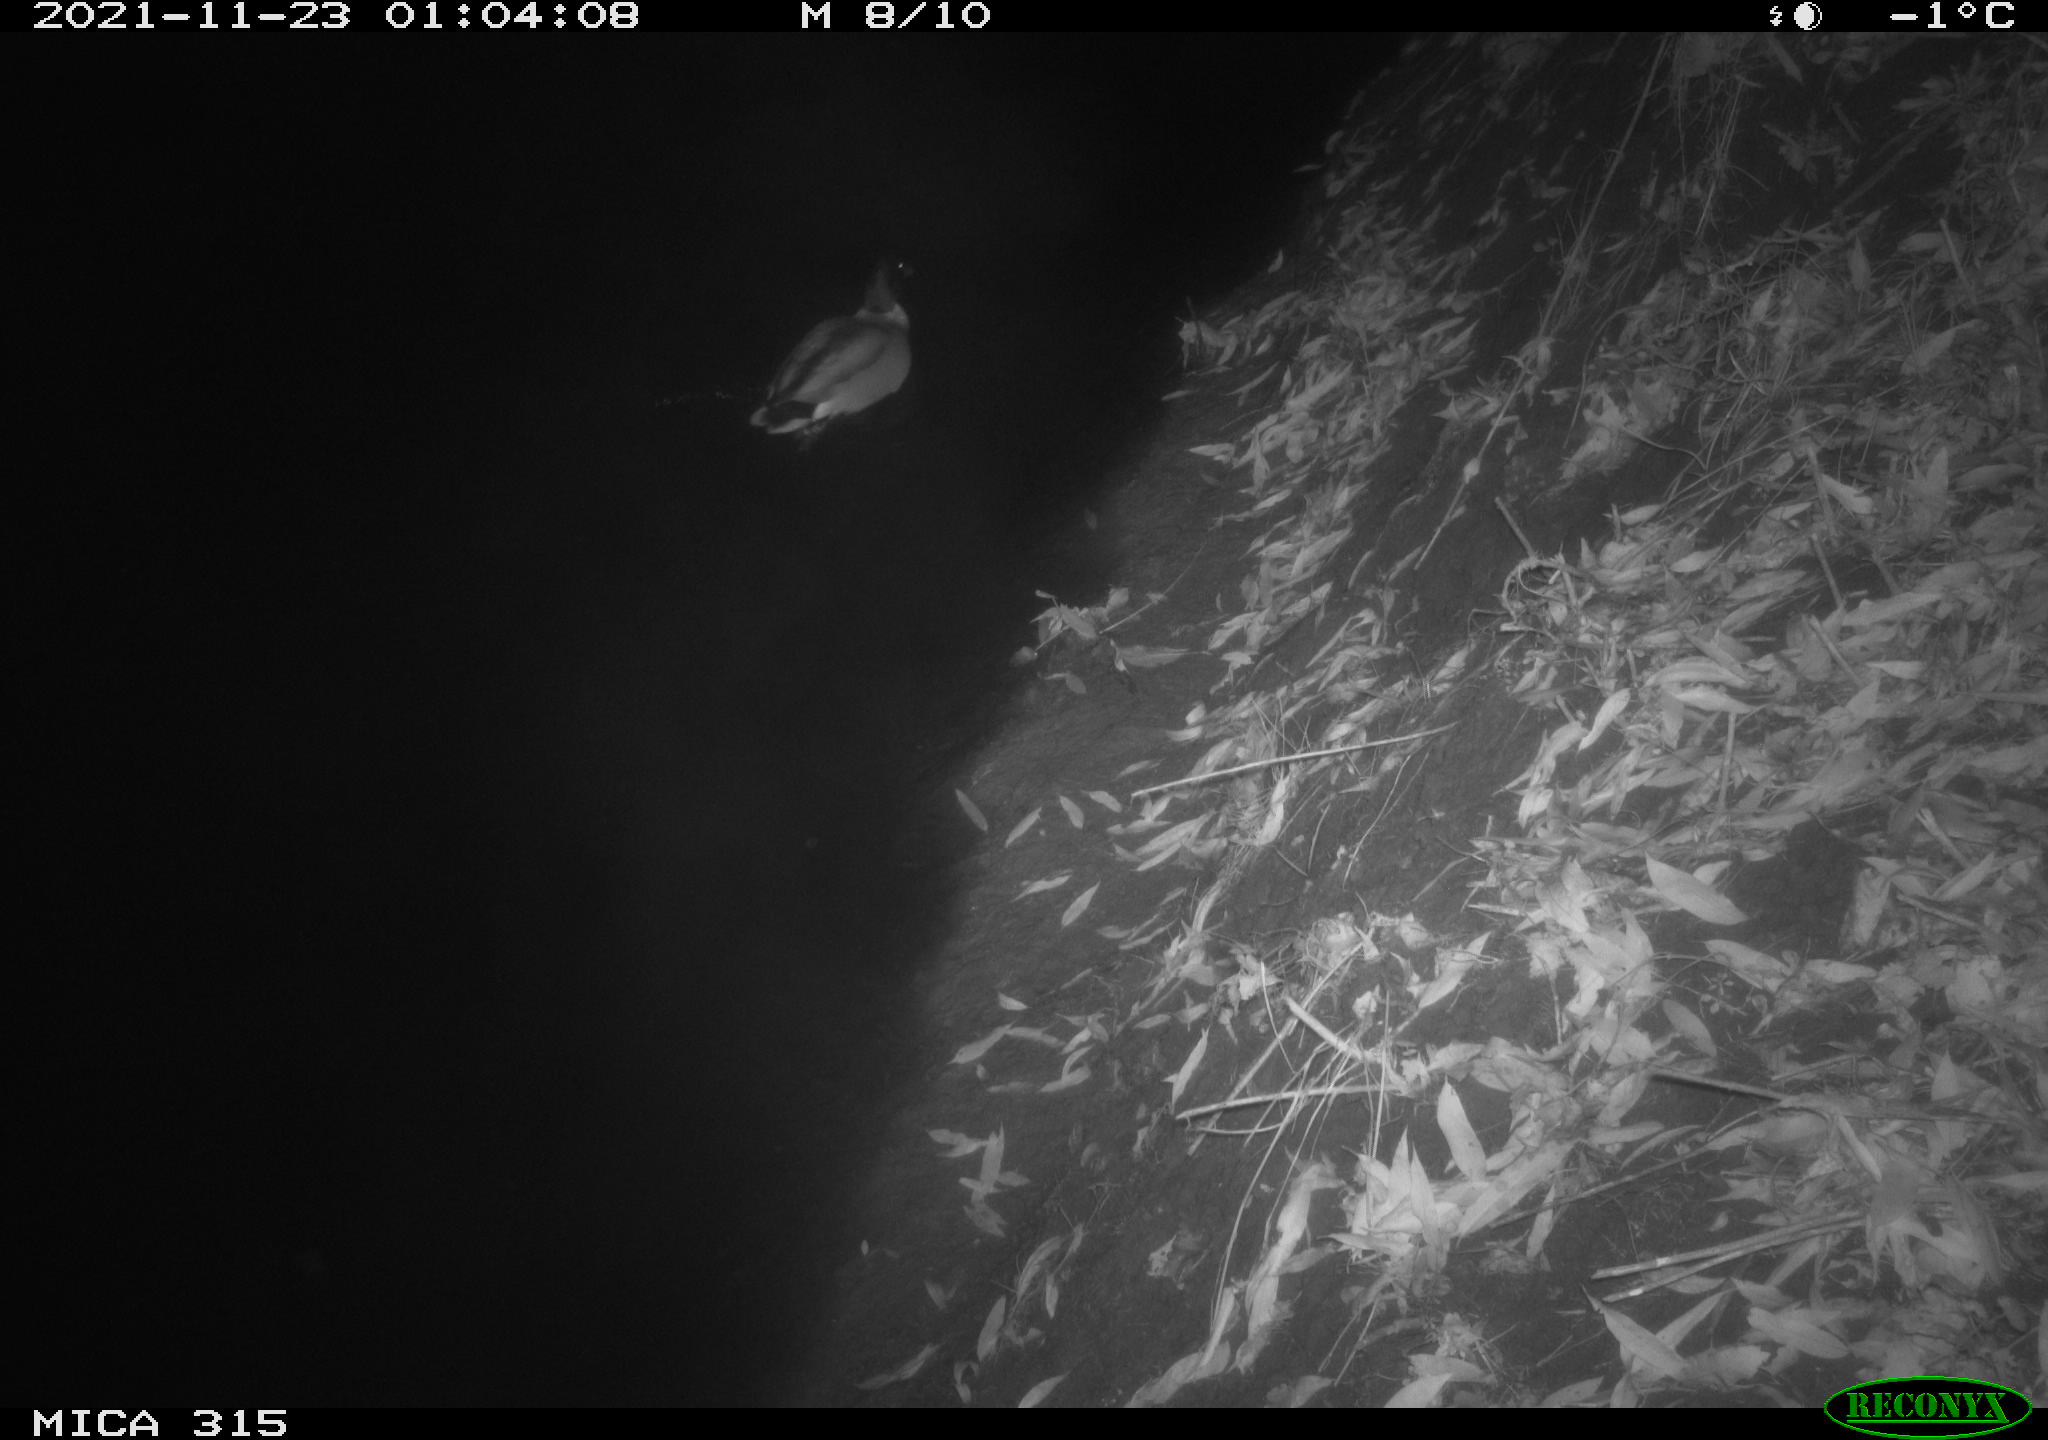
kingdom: Animalia
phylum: Chordata
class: Aves
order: Anseriformes
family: Anatidae
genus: Anas
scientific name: Anas platyrhynchos
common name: Mallard
